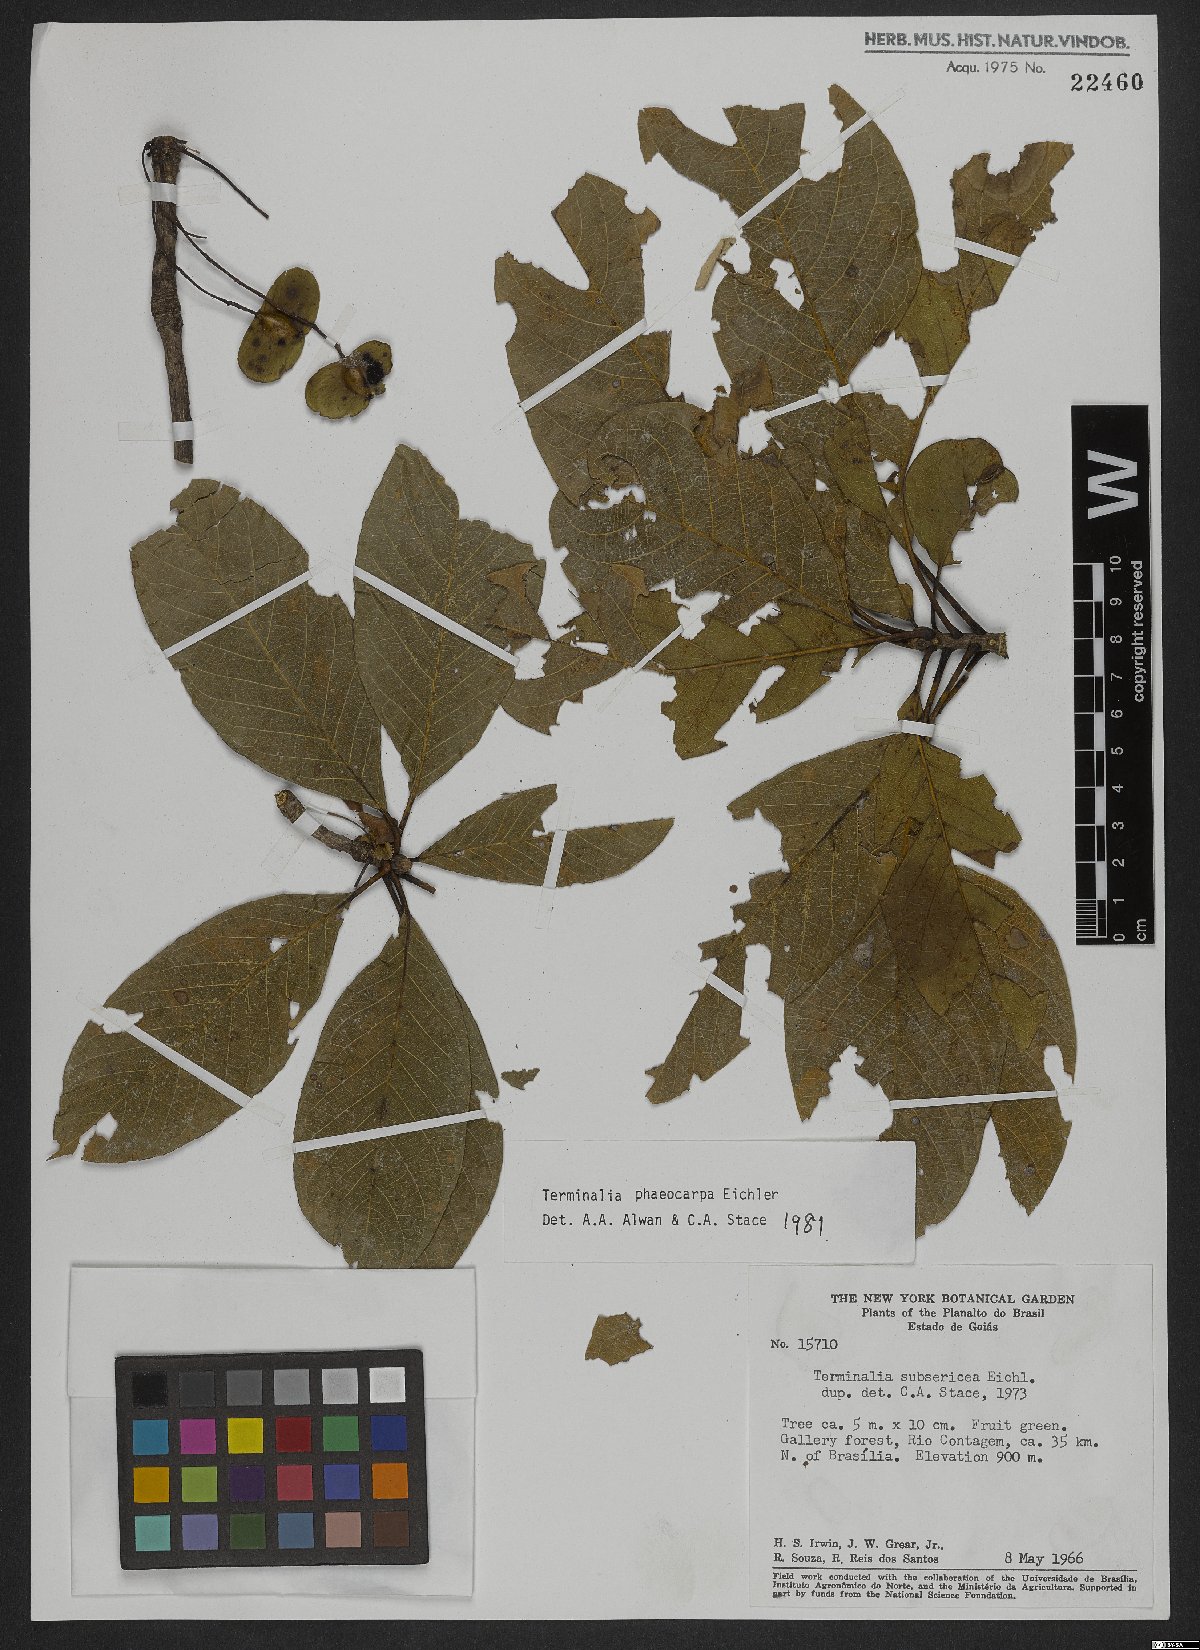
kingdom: Plantae
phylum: Tracheophyta
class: Magnoliopsida
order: Myrtales
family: Combretaceae
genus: Terminalia
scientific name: Terminalia phaeocarpa
